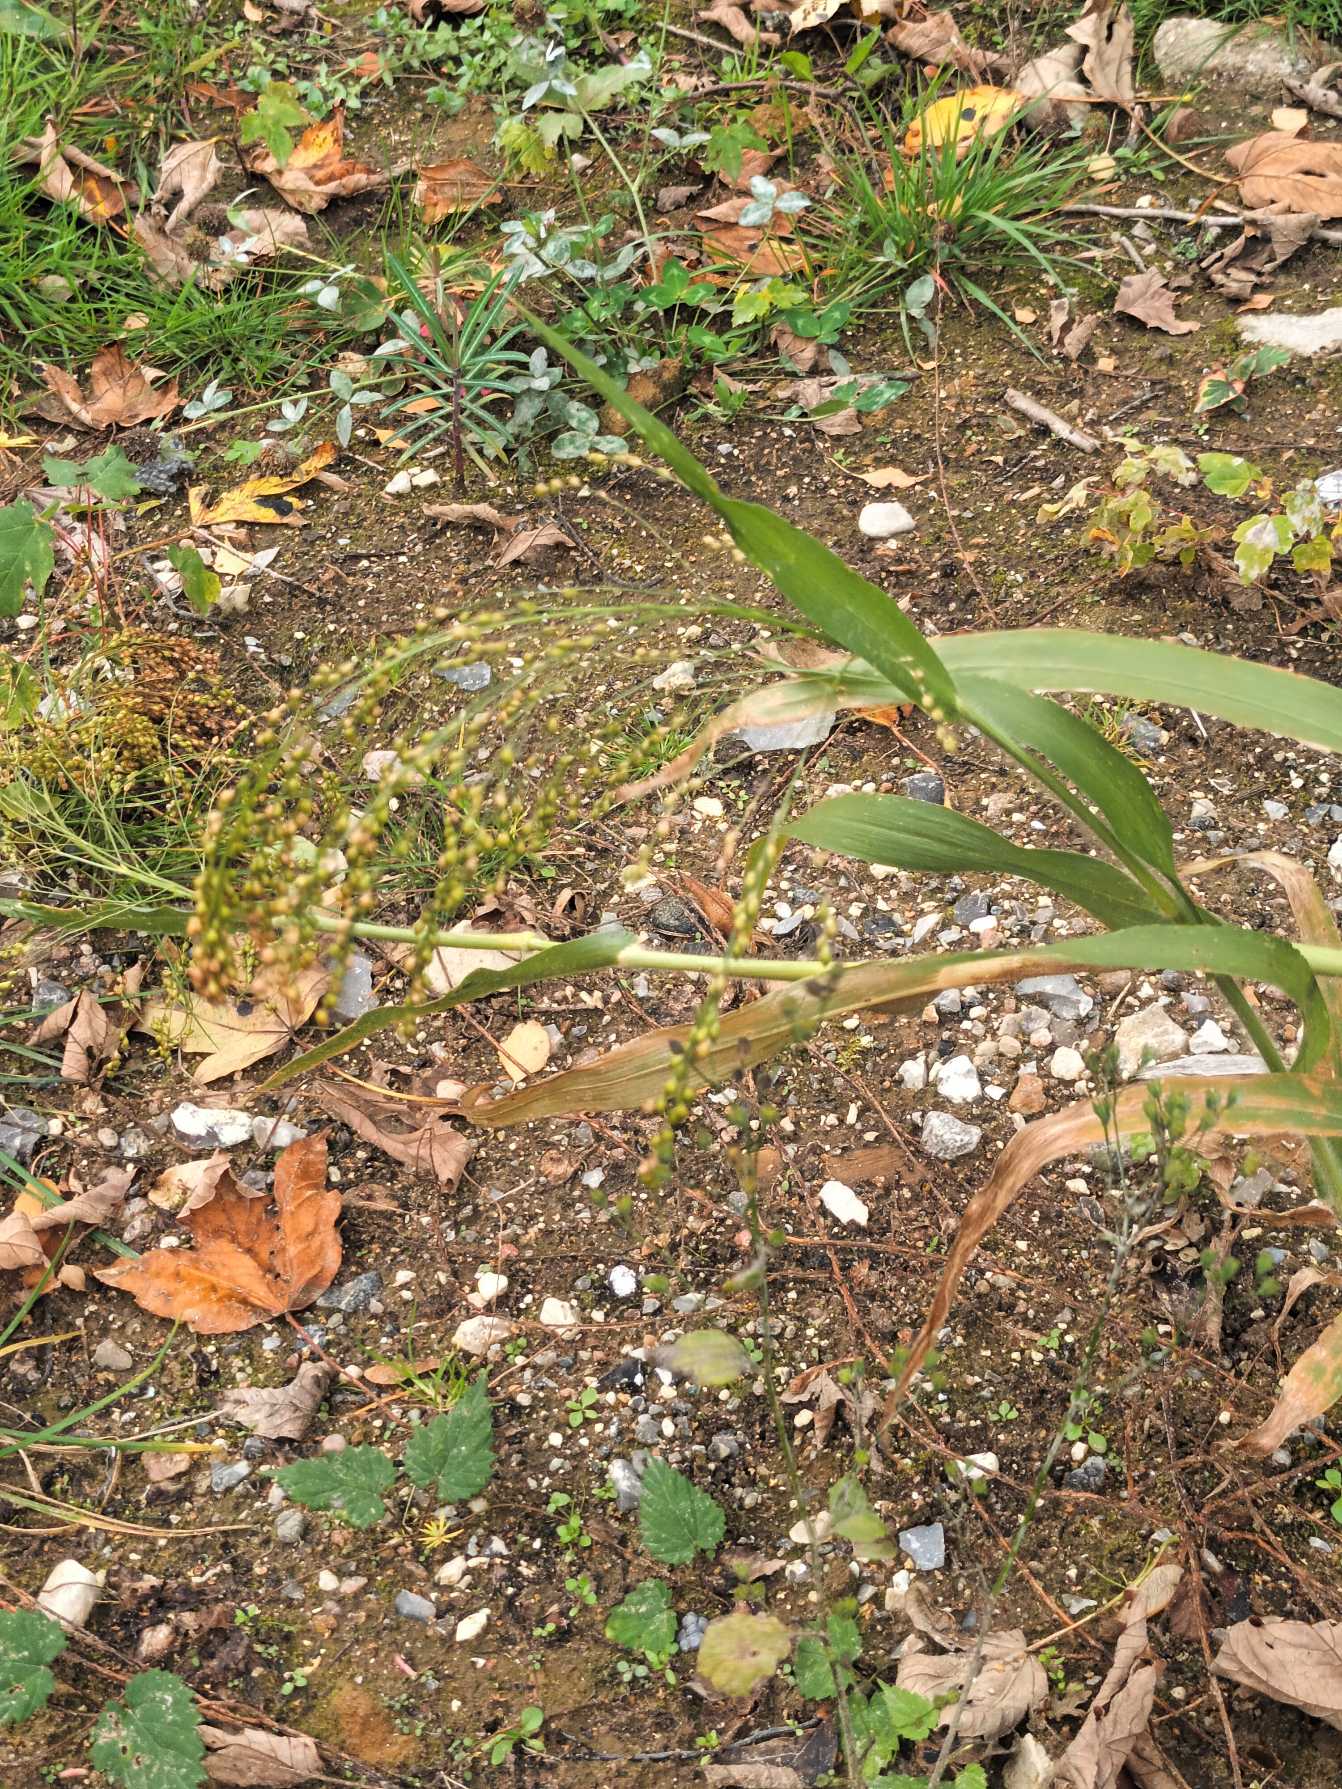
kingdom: Plantae
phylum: Tracheophyta
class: Liliopsida
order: Poales
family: Poaceae
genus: Panicum
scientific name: Panicum miliaceum
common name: Almindelig hirse
